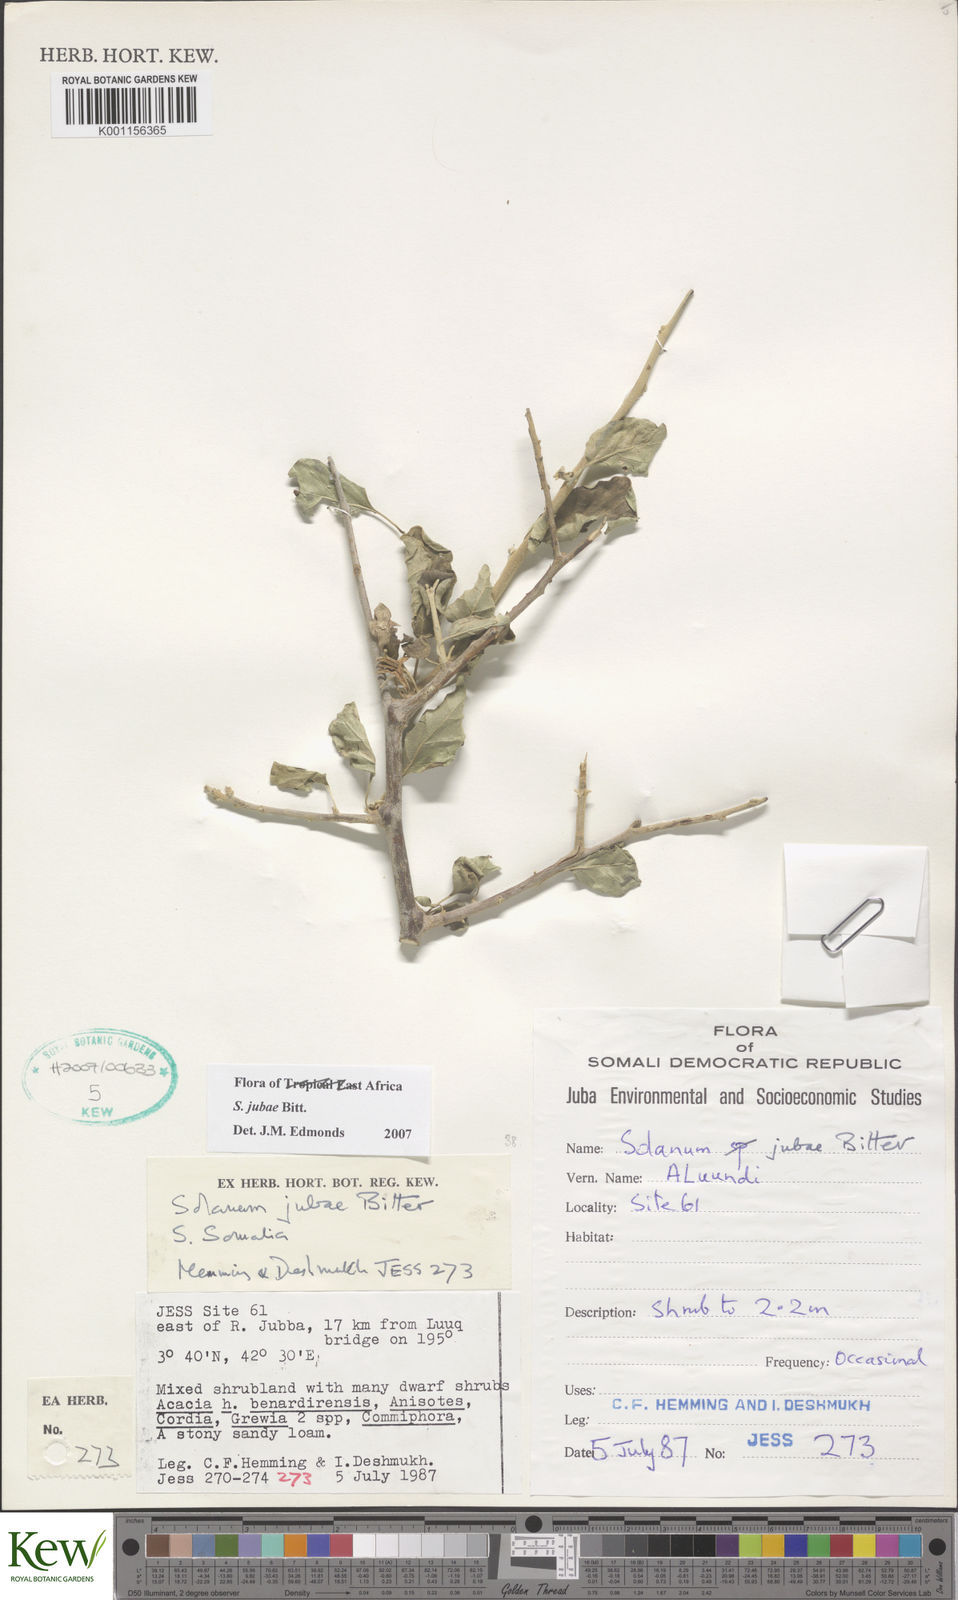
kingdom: Plantae
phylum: Tracheophyta
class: Magnoliopsida
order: Solanales
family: Solanaceae
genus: Solanum
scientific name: Solanum jubae
